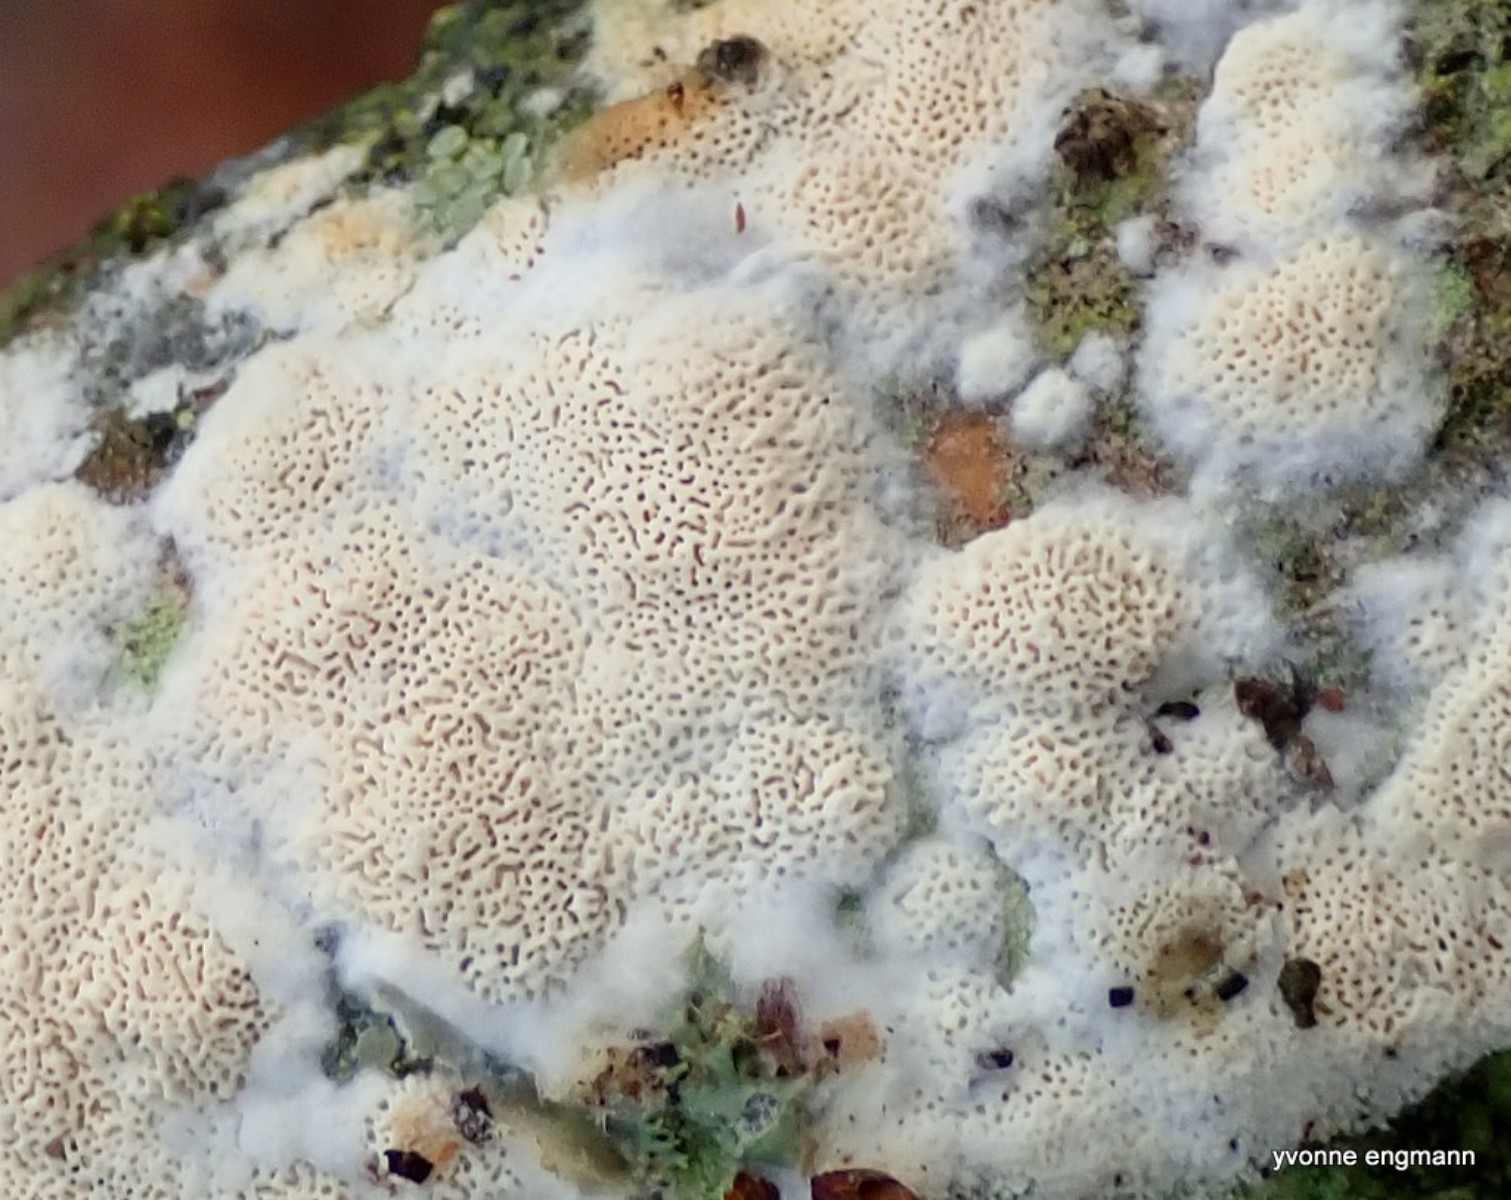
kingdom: Fungi
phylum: Basidiomycota
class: Agaricomycetes
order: Hymenochaetales
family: Schizoporaceae
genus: Xylodon
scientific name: Xylodon subtropicus
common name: labyrint-tandsvamp
